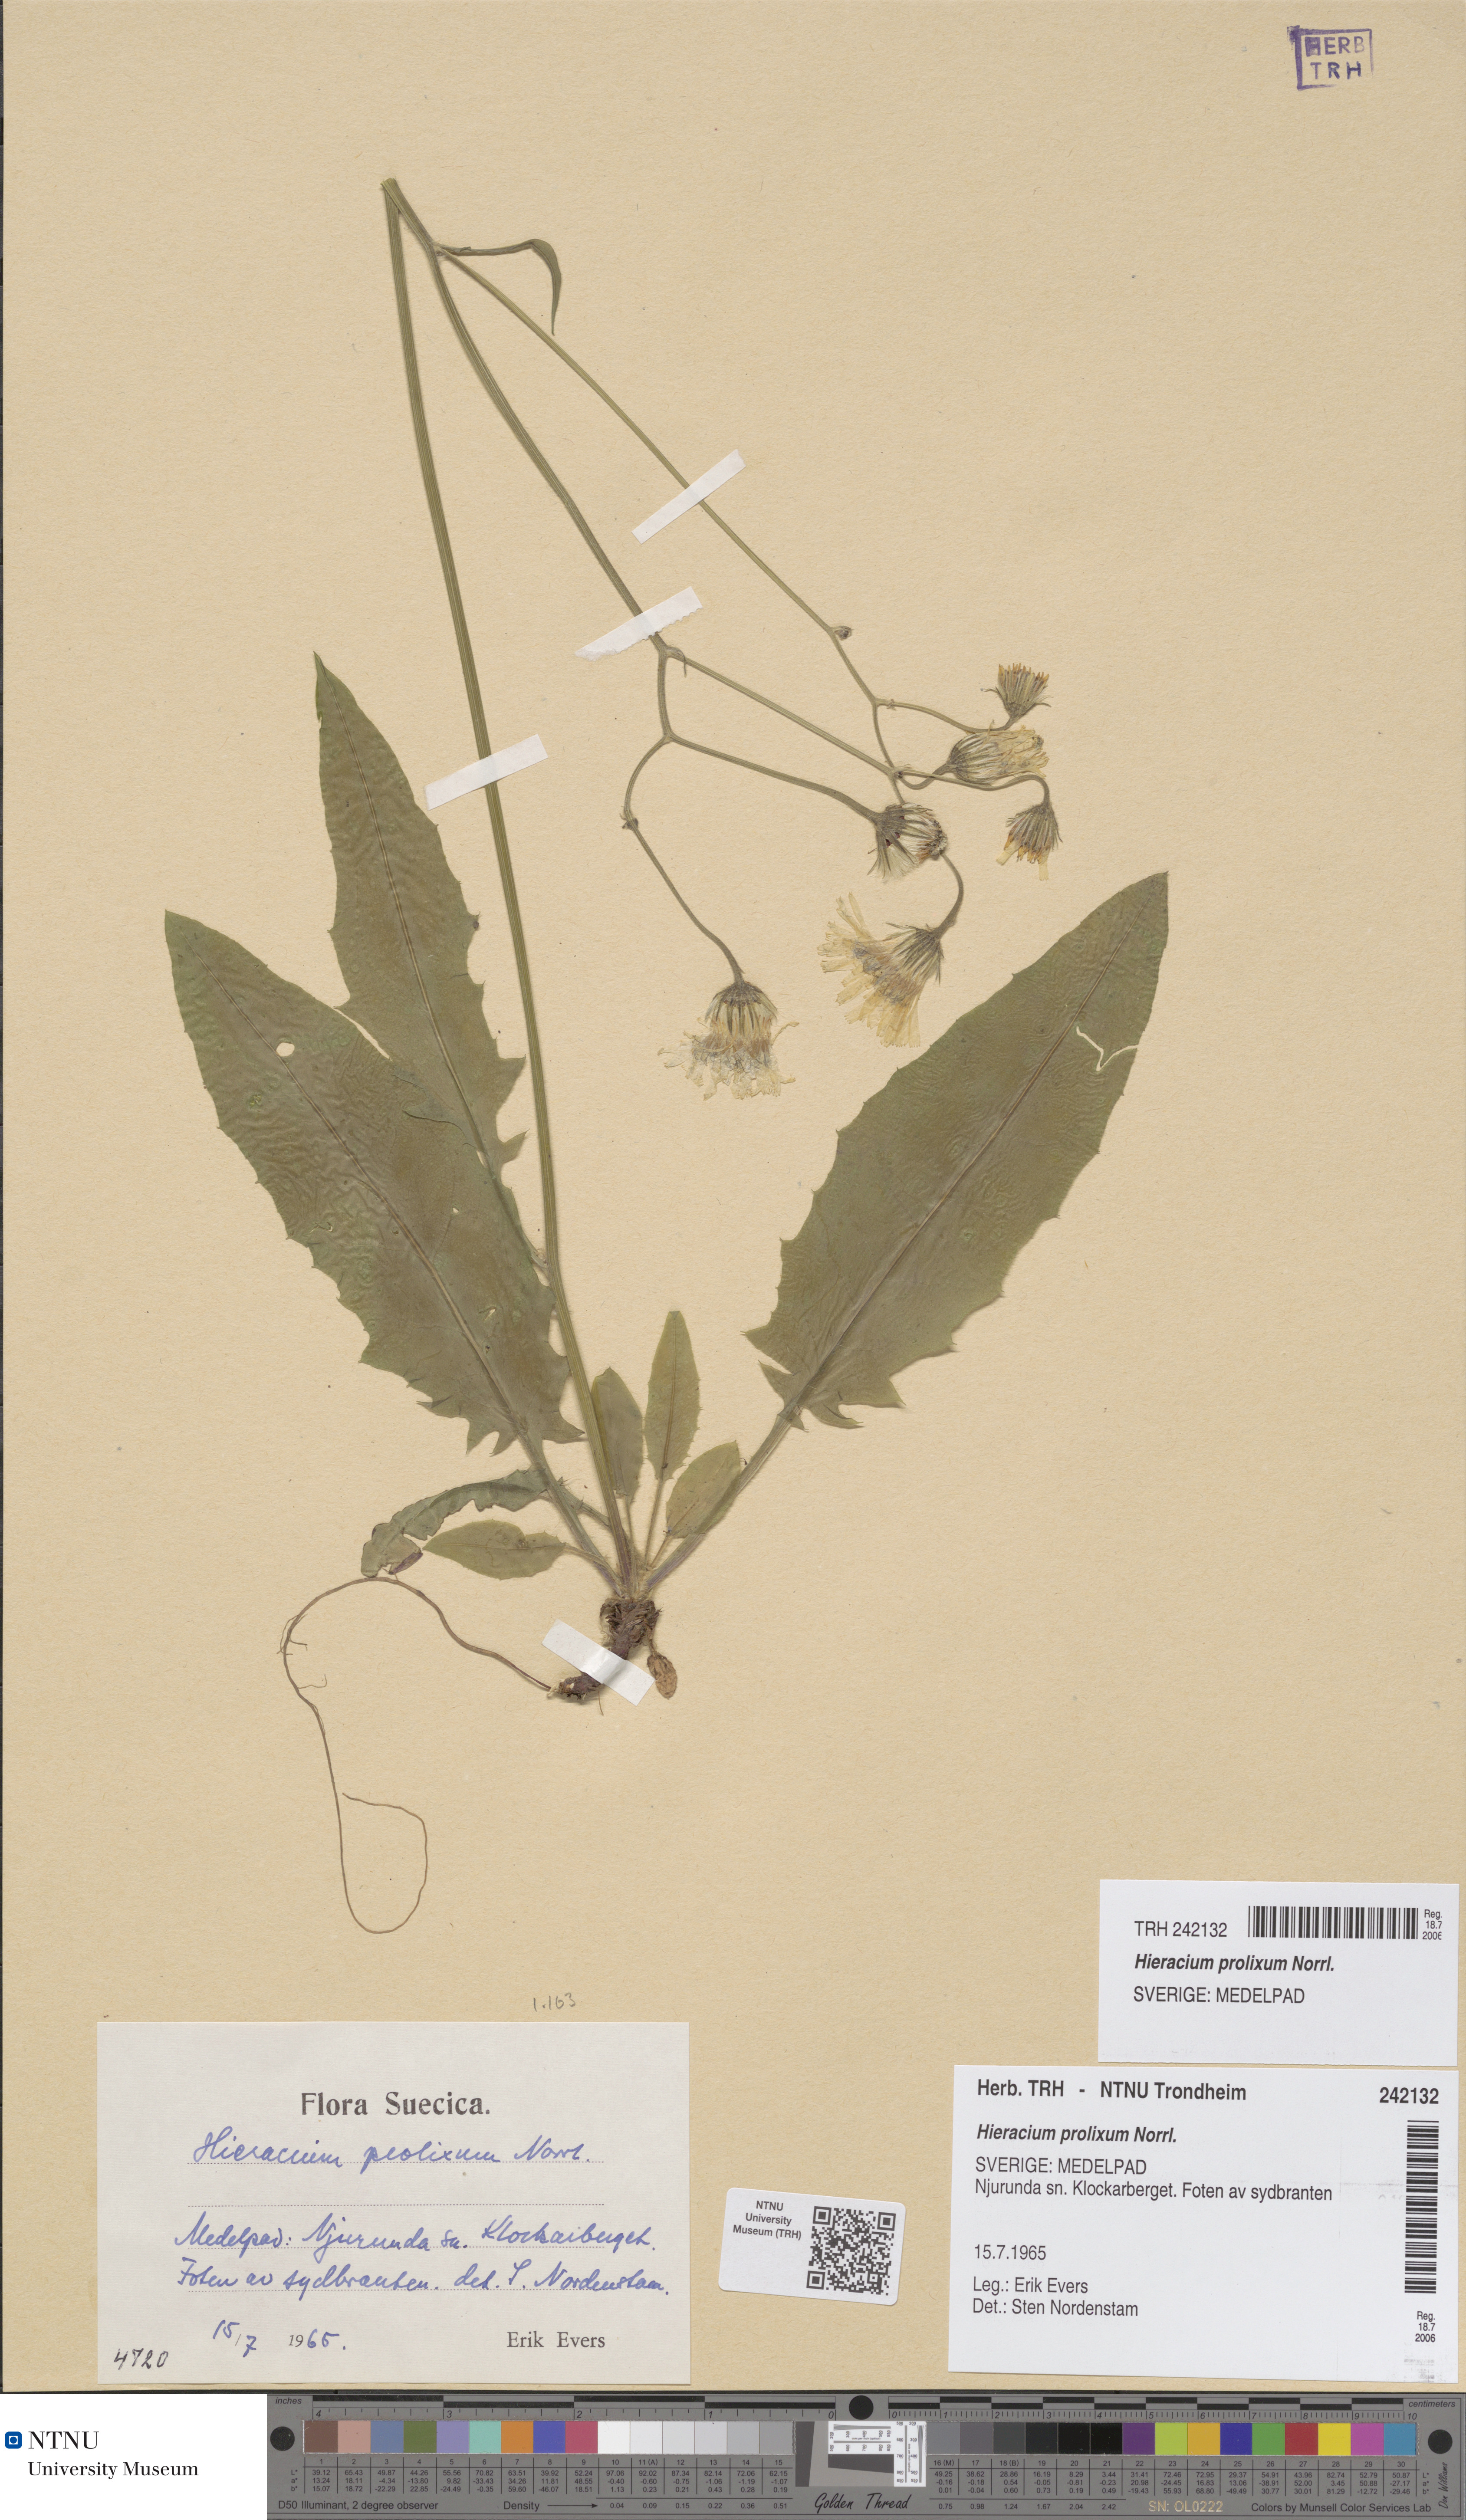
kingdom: Plantae
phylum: Tracheophyta
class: Magnoliopsida
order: Asterales
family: Asteraceae
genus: Hieracium
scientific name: Hieracium bifidum
